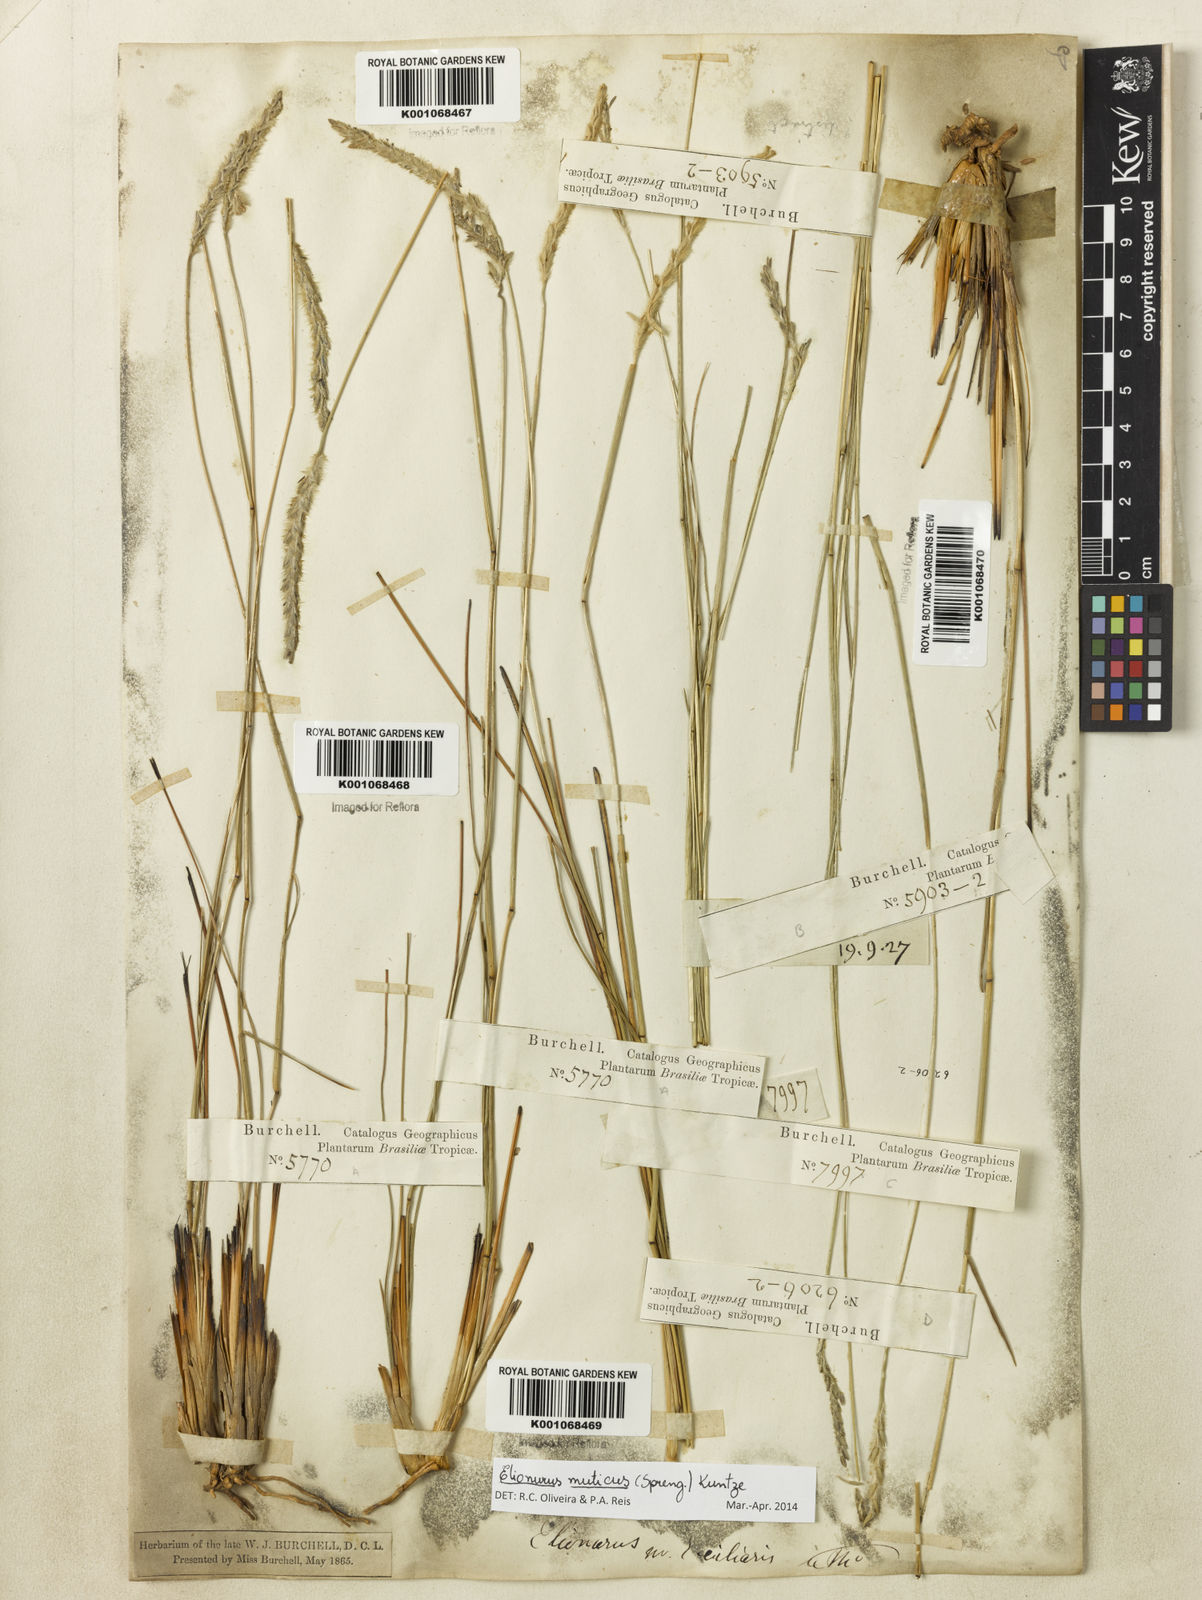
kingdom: Plantae
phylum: Tracheophyta
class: Liliopsida
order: Poales
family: Poaceae
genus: Elionurus
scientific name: Elionurus muticus
